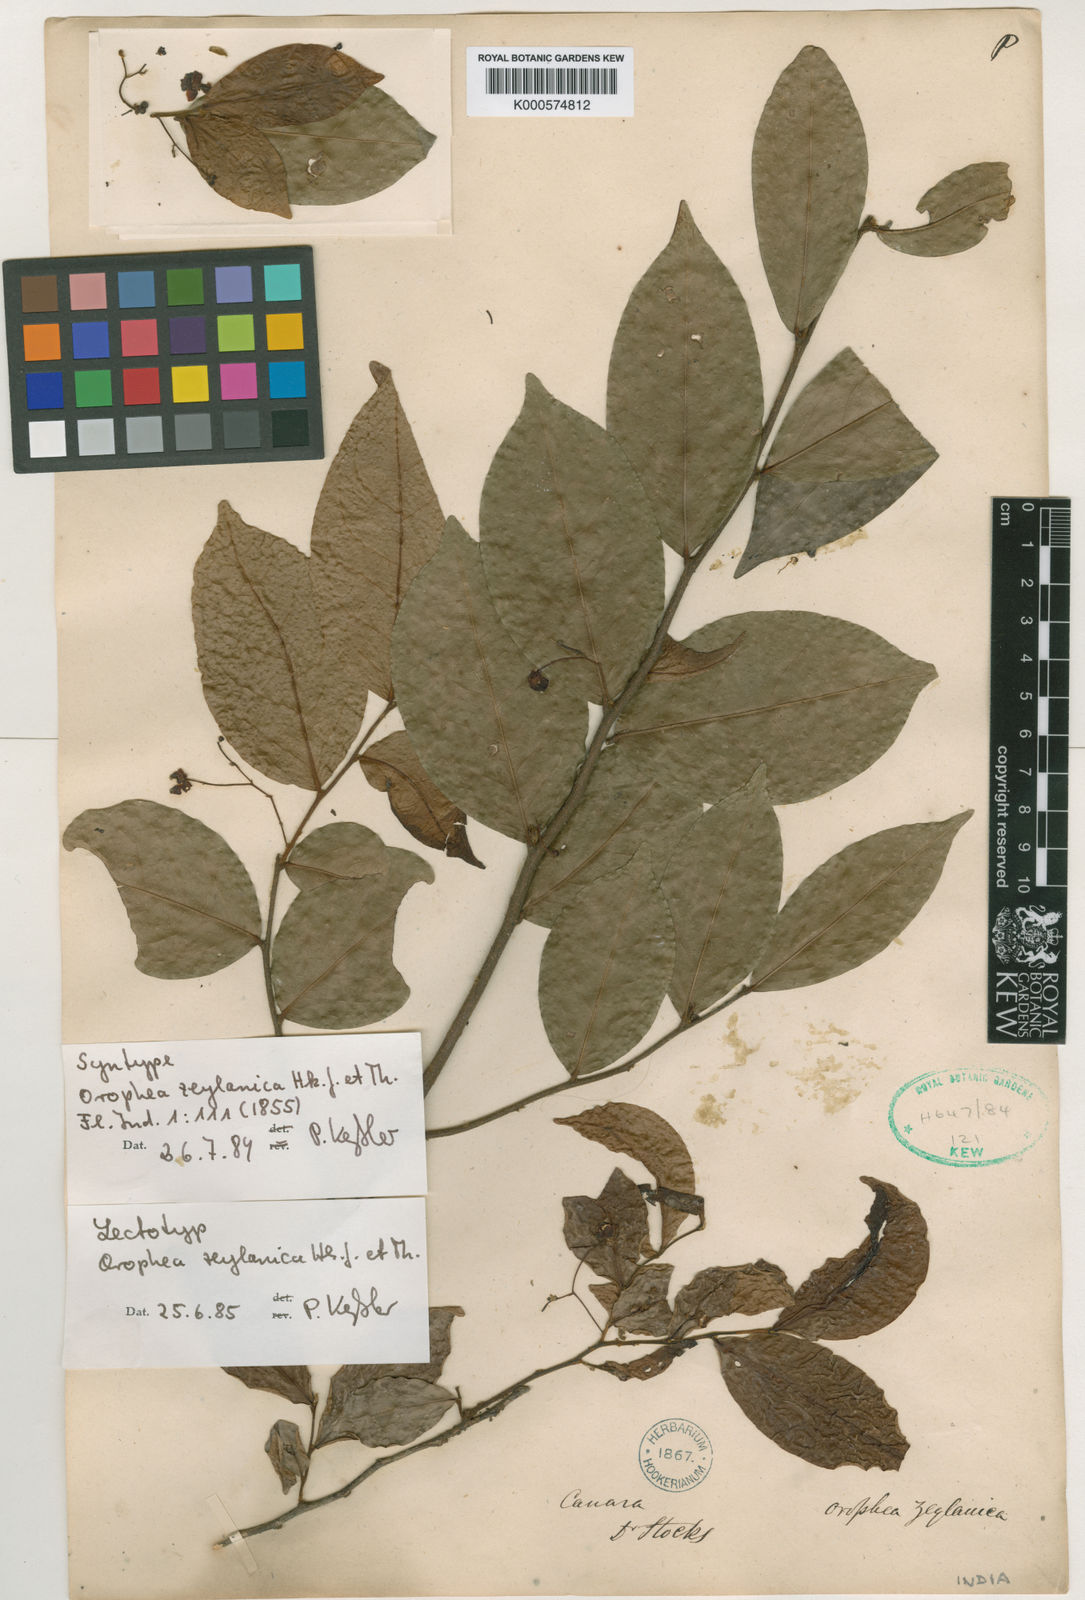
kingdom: Plantae
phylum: Tracheophyta
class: Magnoliopsida
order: Magnoliales
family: Annonaceae
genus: Orophea
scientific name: Orophea zeylanica
